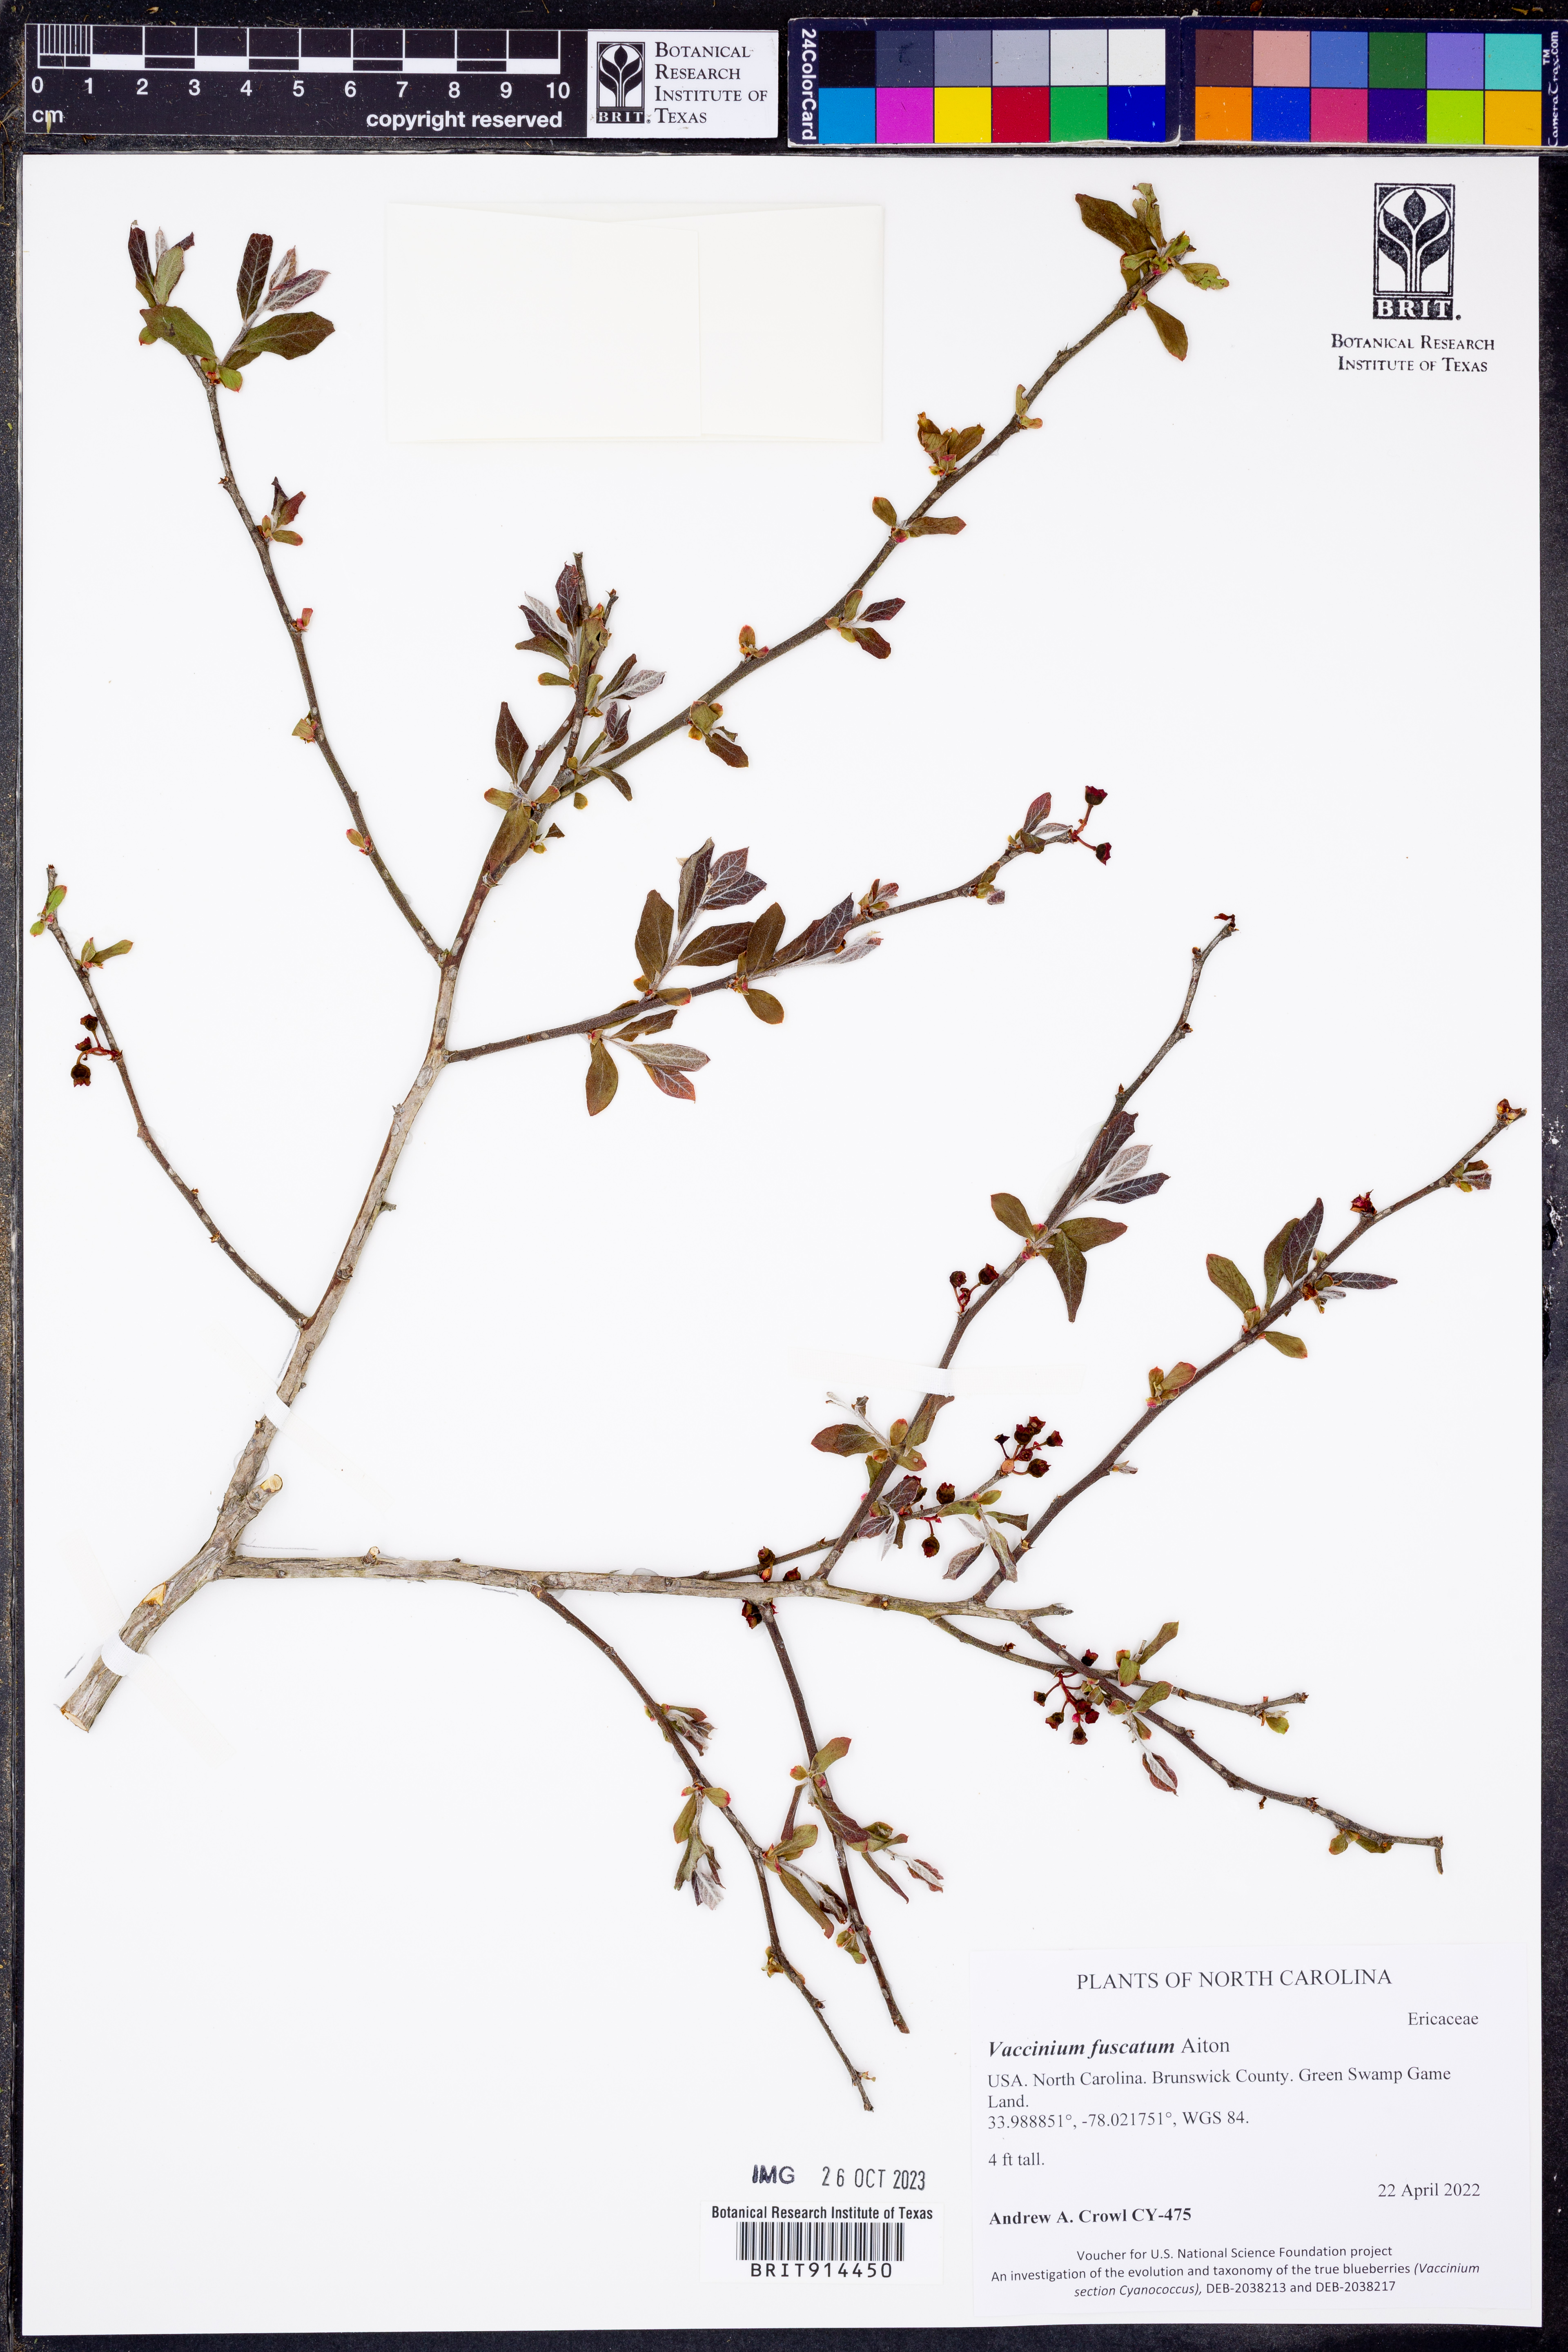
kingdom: Plantae
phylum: Tracheophyta
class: Magnoliopsida
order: Ericales
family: Ericaceae
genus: Vaccinium
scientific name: Vaccinium corymbosum
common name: Blueberry
